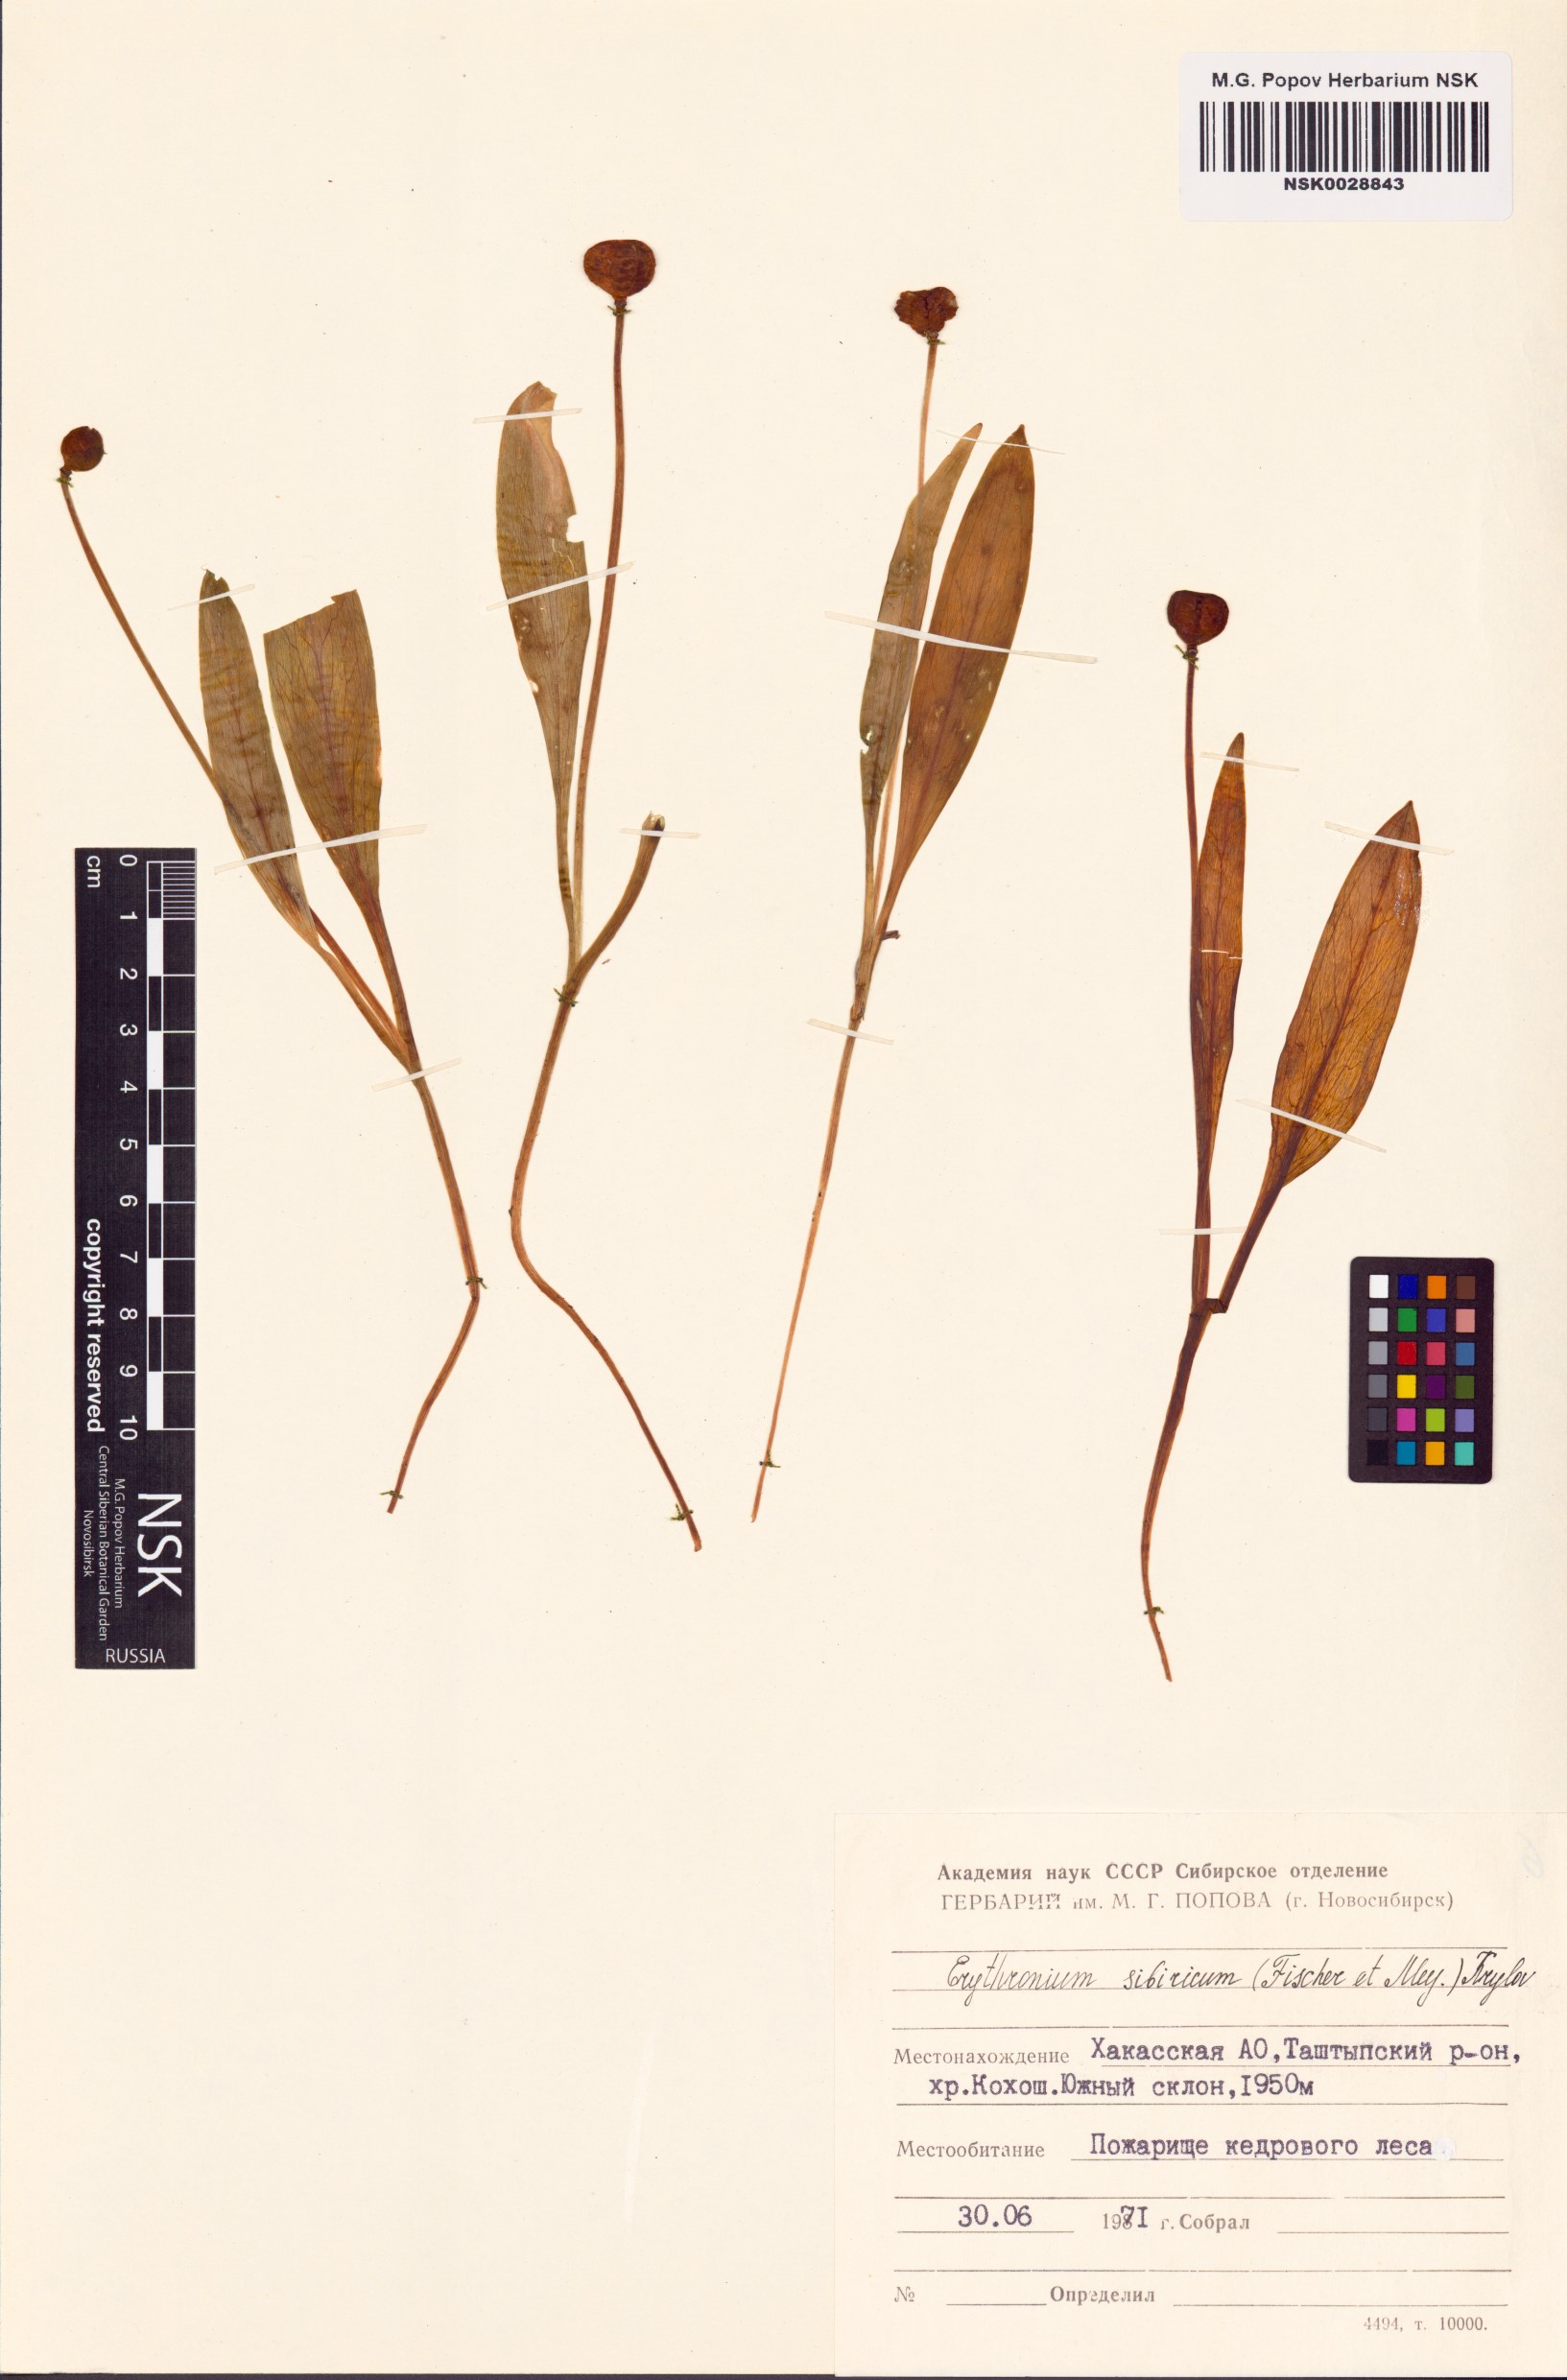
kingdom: Plantae
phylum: Tracheophyta
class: Liliopsida
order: Liliales
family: Liliaceae
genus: Erythronium
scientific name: Erythronium sibiricum
